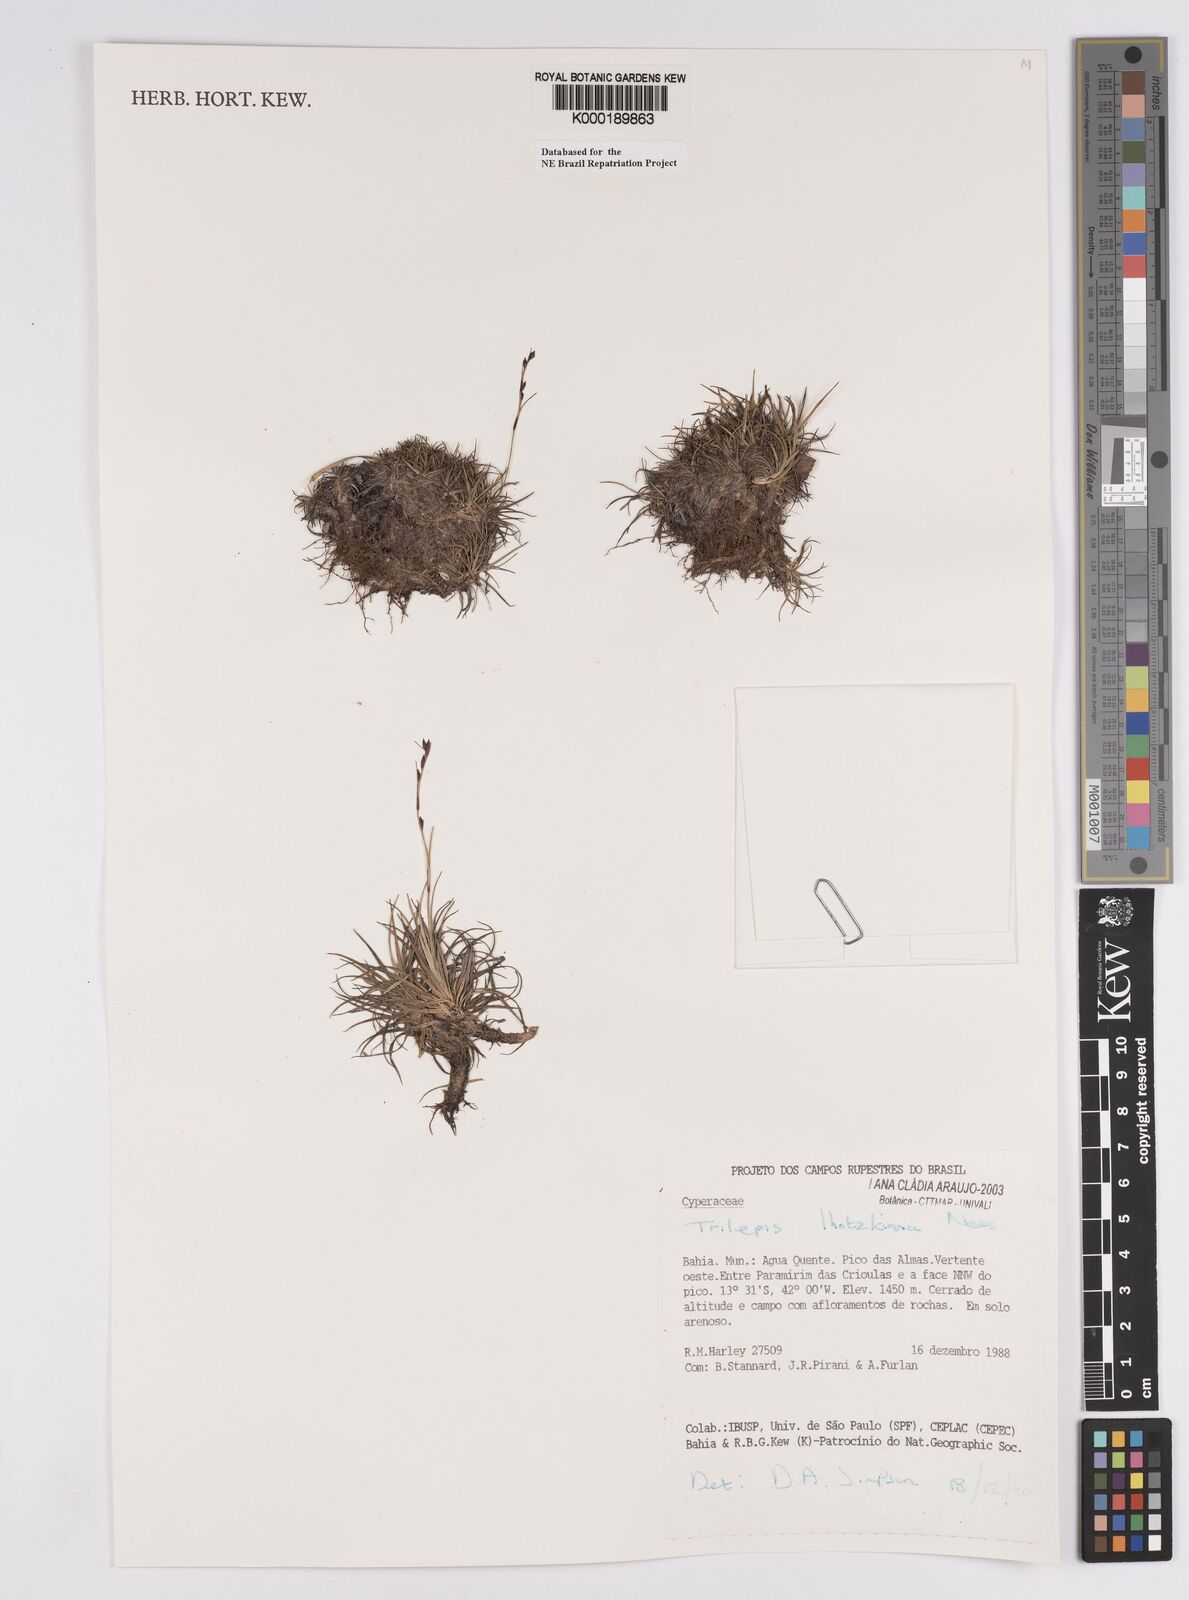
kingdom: Plantae
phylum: Tracheophyta
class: Liliopsida
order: Poales
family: Cyperaceae
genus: Trilepis
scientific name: Trilepis lhotzkiana
